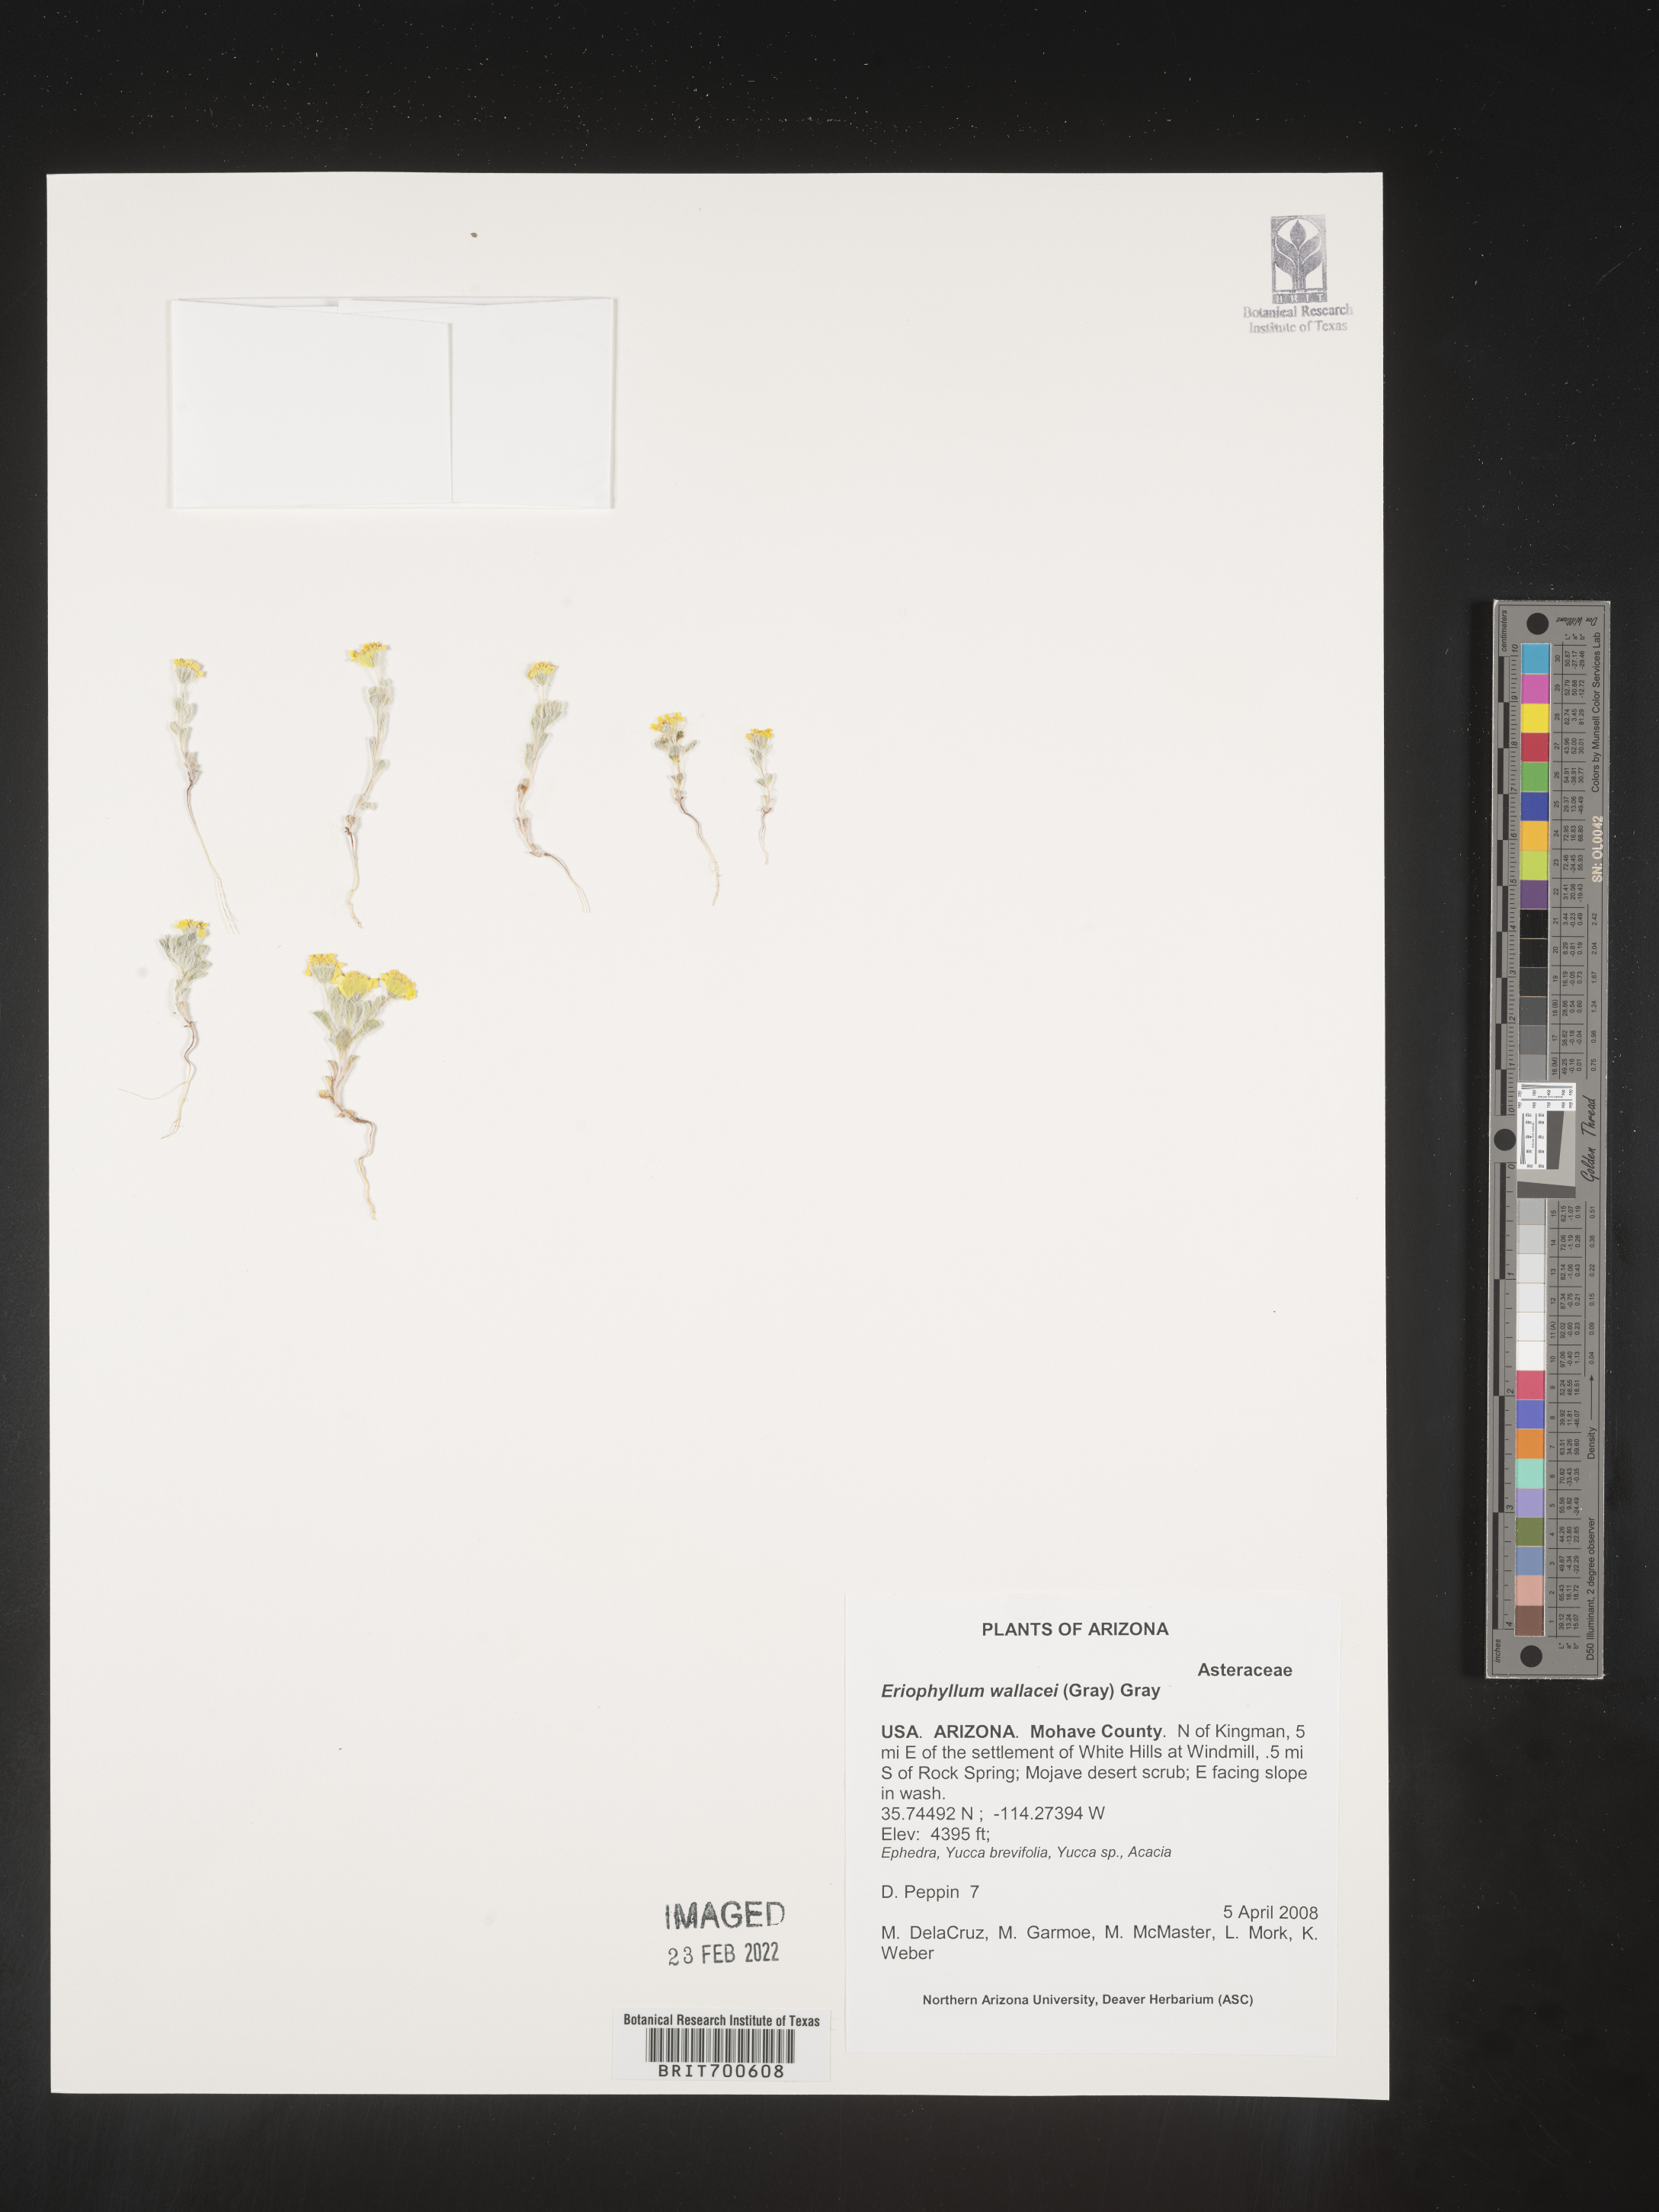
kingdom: Plantae
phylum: Tracheophyta
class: Magnoliopsida
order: Asterales
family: Asteraceae
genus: Eriophyllum
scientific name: Eriophyllum wallacei
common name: Wallace's woolly daisy
